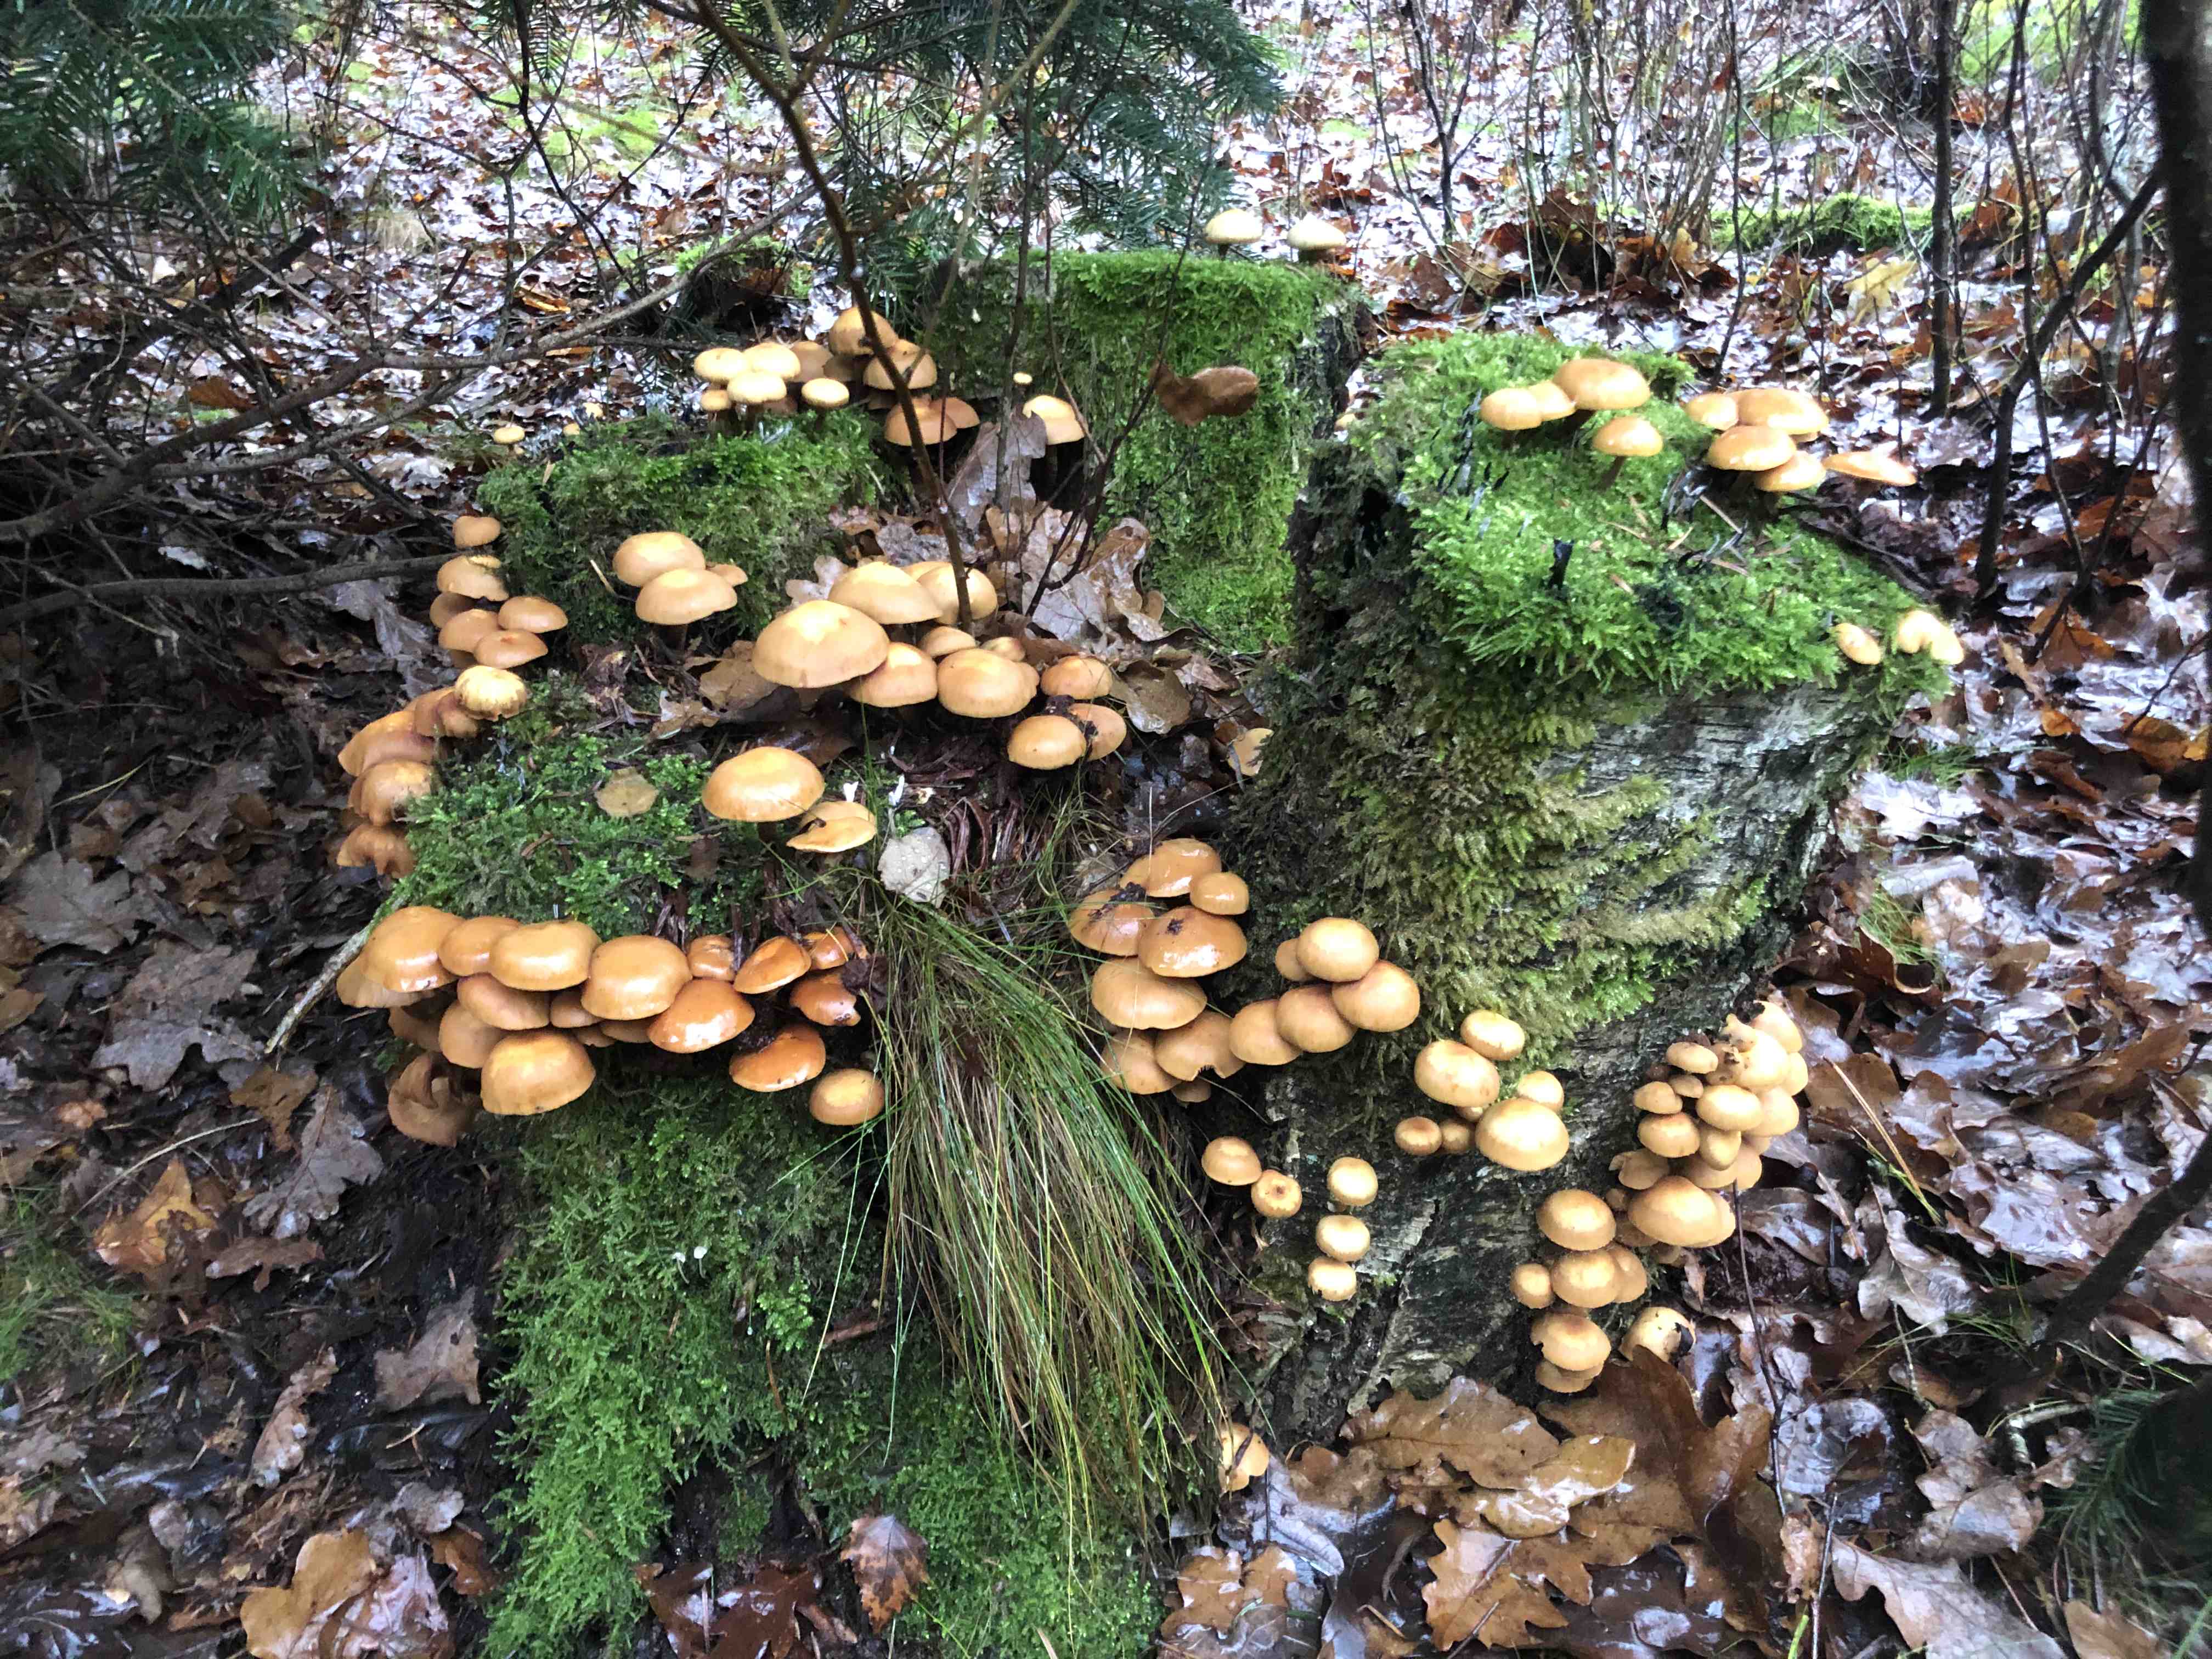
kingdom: Fungi
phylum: Basidiomycota
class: Agaricomycetes
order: Agaricales
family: Strophariaceae
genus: Kuehneromyces
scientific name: Kuehneromyces mutabilis
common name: foranderlig skælhat
